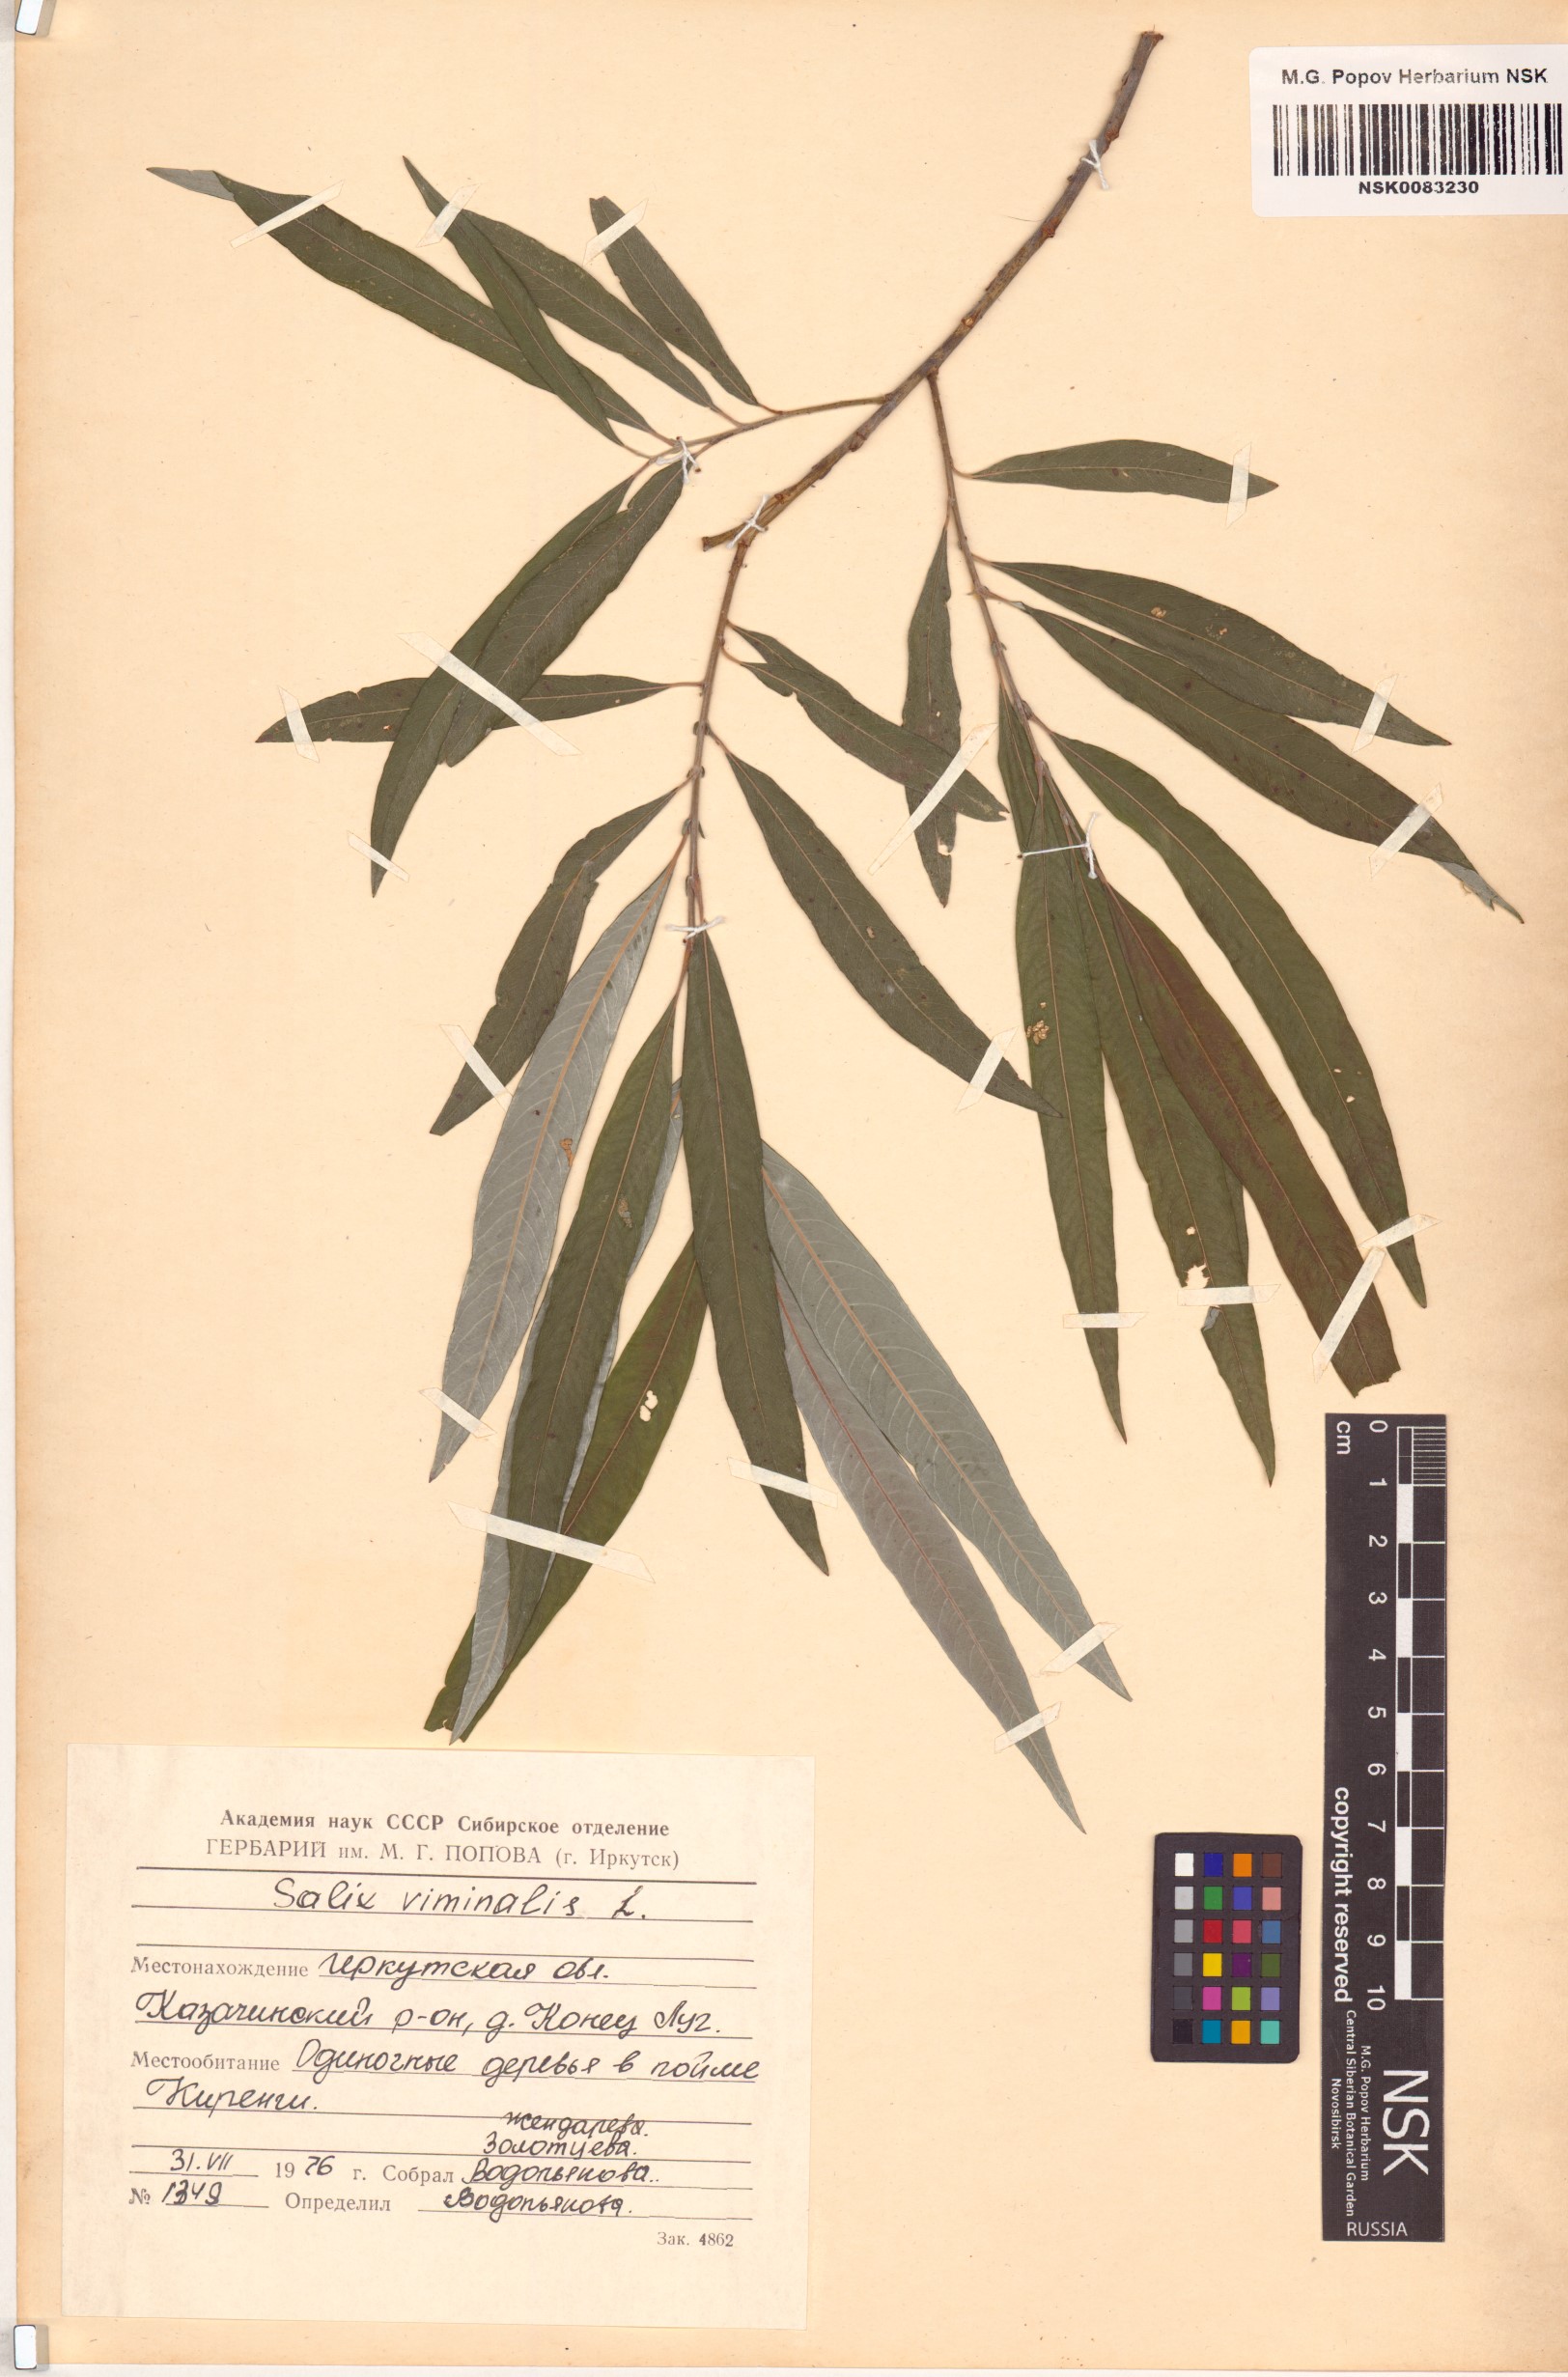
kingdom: Plantae
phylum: Tracheophyta
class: Magnoliopsida
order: Malpighiales
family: Salicaceae
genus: Salix
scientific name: Salix viminalis
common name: Osier
